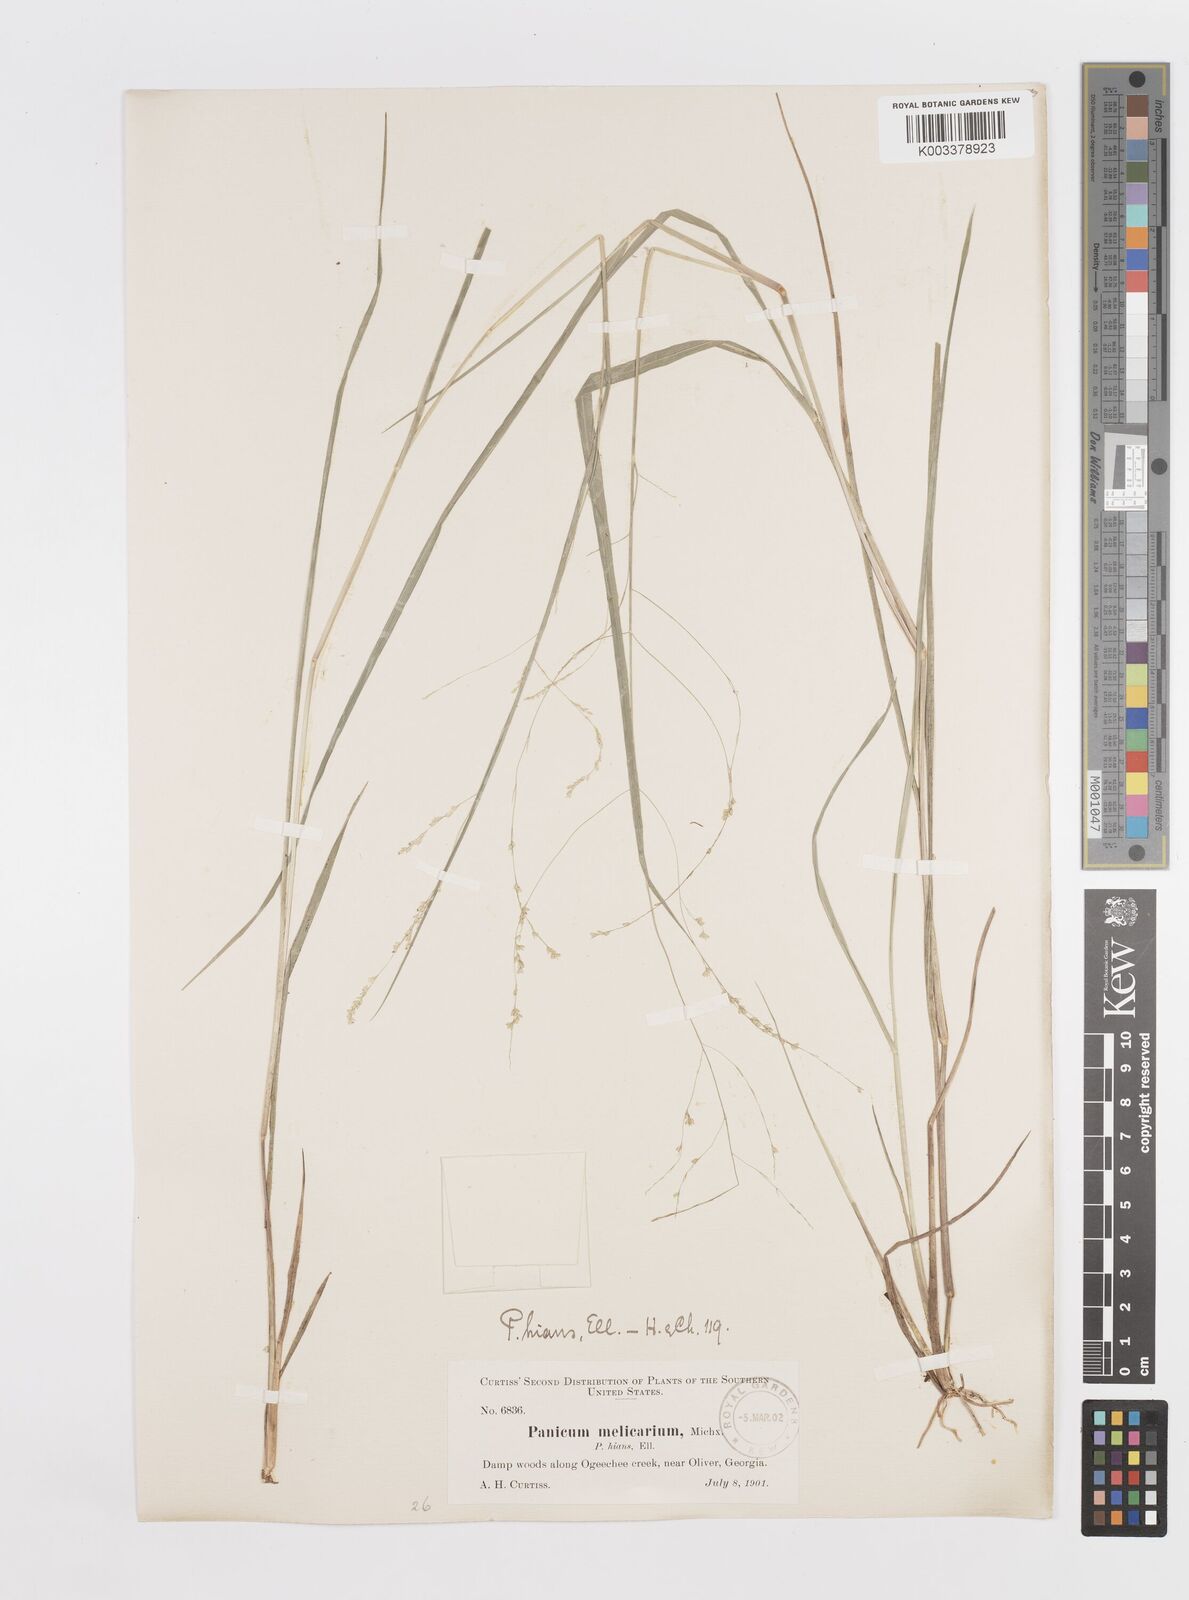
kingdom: Plantae
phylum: Tracheophyta
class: Liliopsida
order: Poales
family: Poaceae
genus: Steinchisma
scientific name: Steinchisma hians
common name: Gaping panic grass
